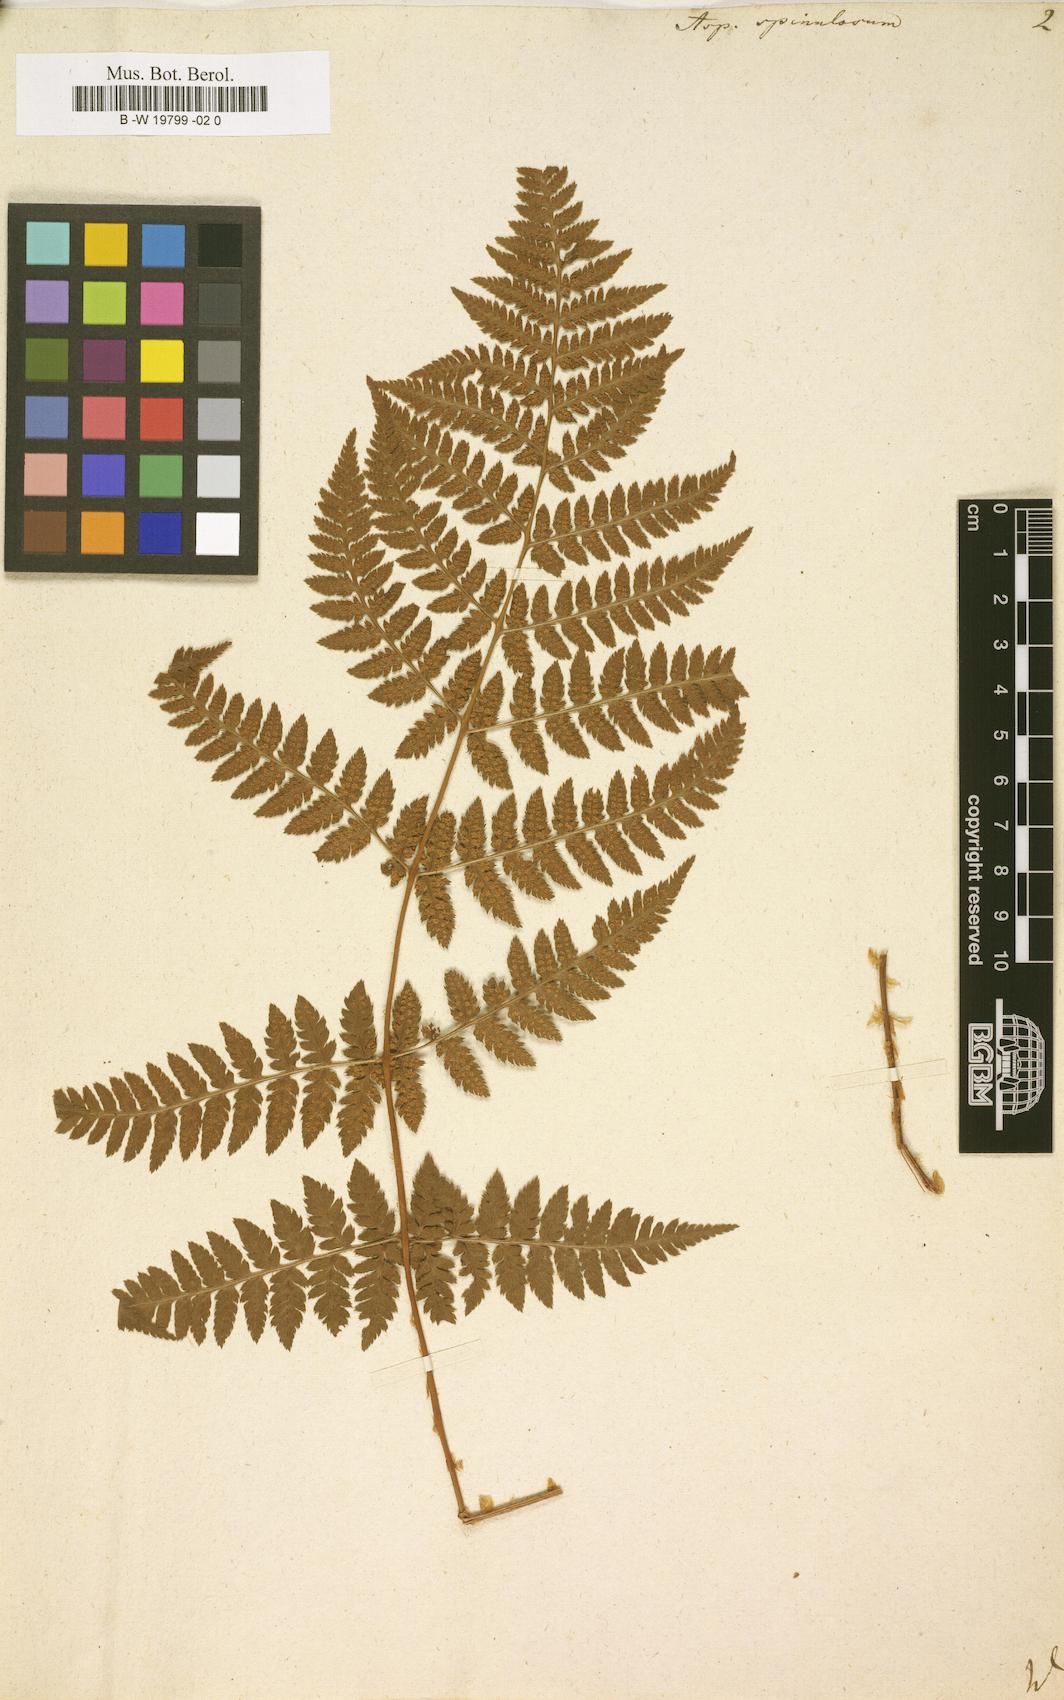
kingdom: Plantae
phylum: Tracheophyta
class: Polypodiopsida
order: Polypodiales
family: Dryopteridaceae
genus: Dryopteris
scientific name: Dryopteris
